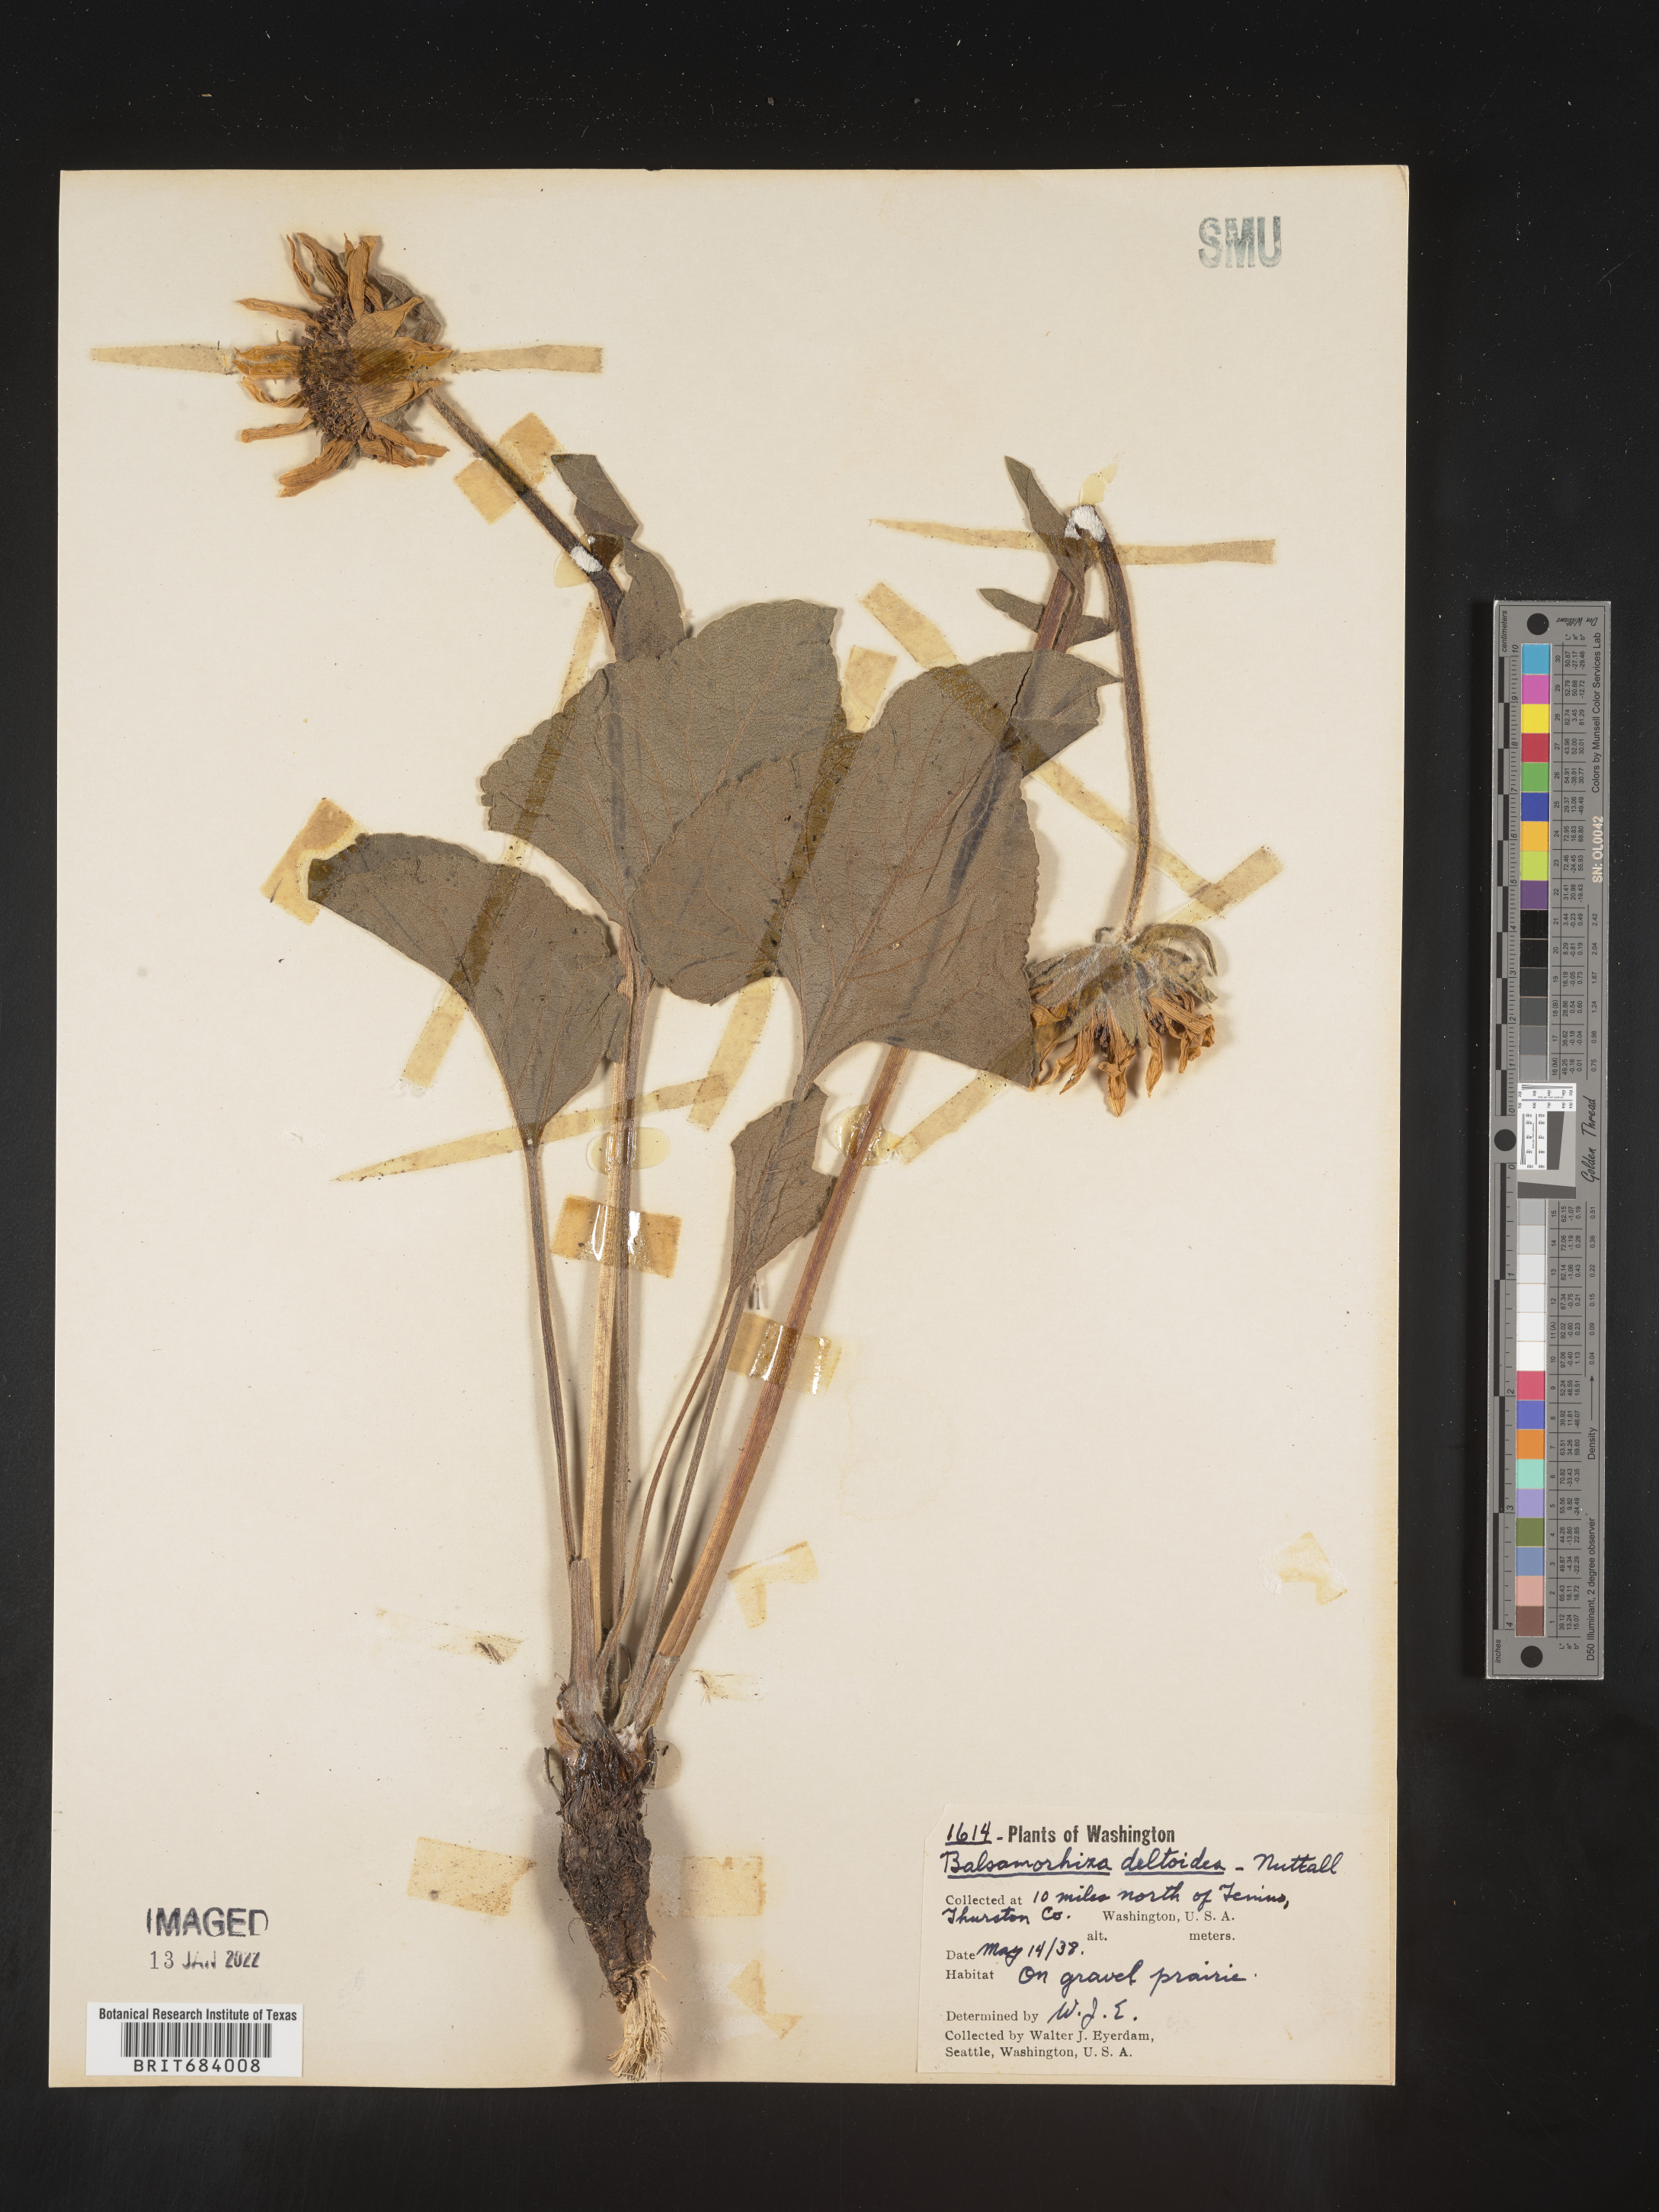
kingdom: Plantae
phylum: Tracheophyta
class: Magnoliopsida
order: Asterales
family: Asteraceae
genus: Balsamorhiza
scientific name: Balsamorhiza
